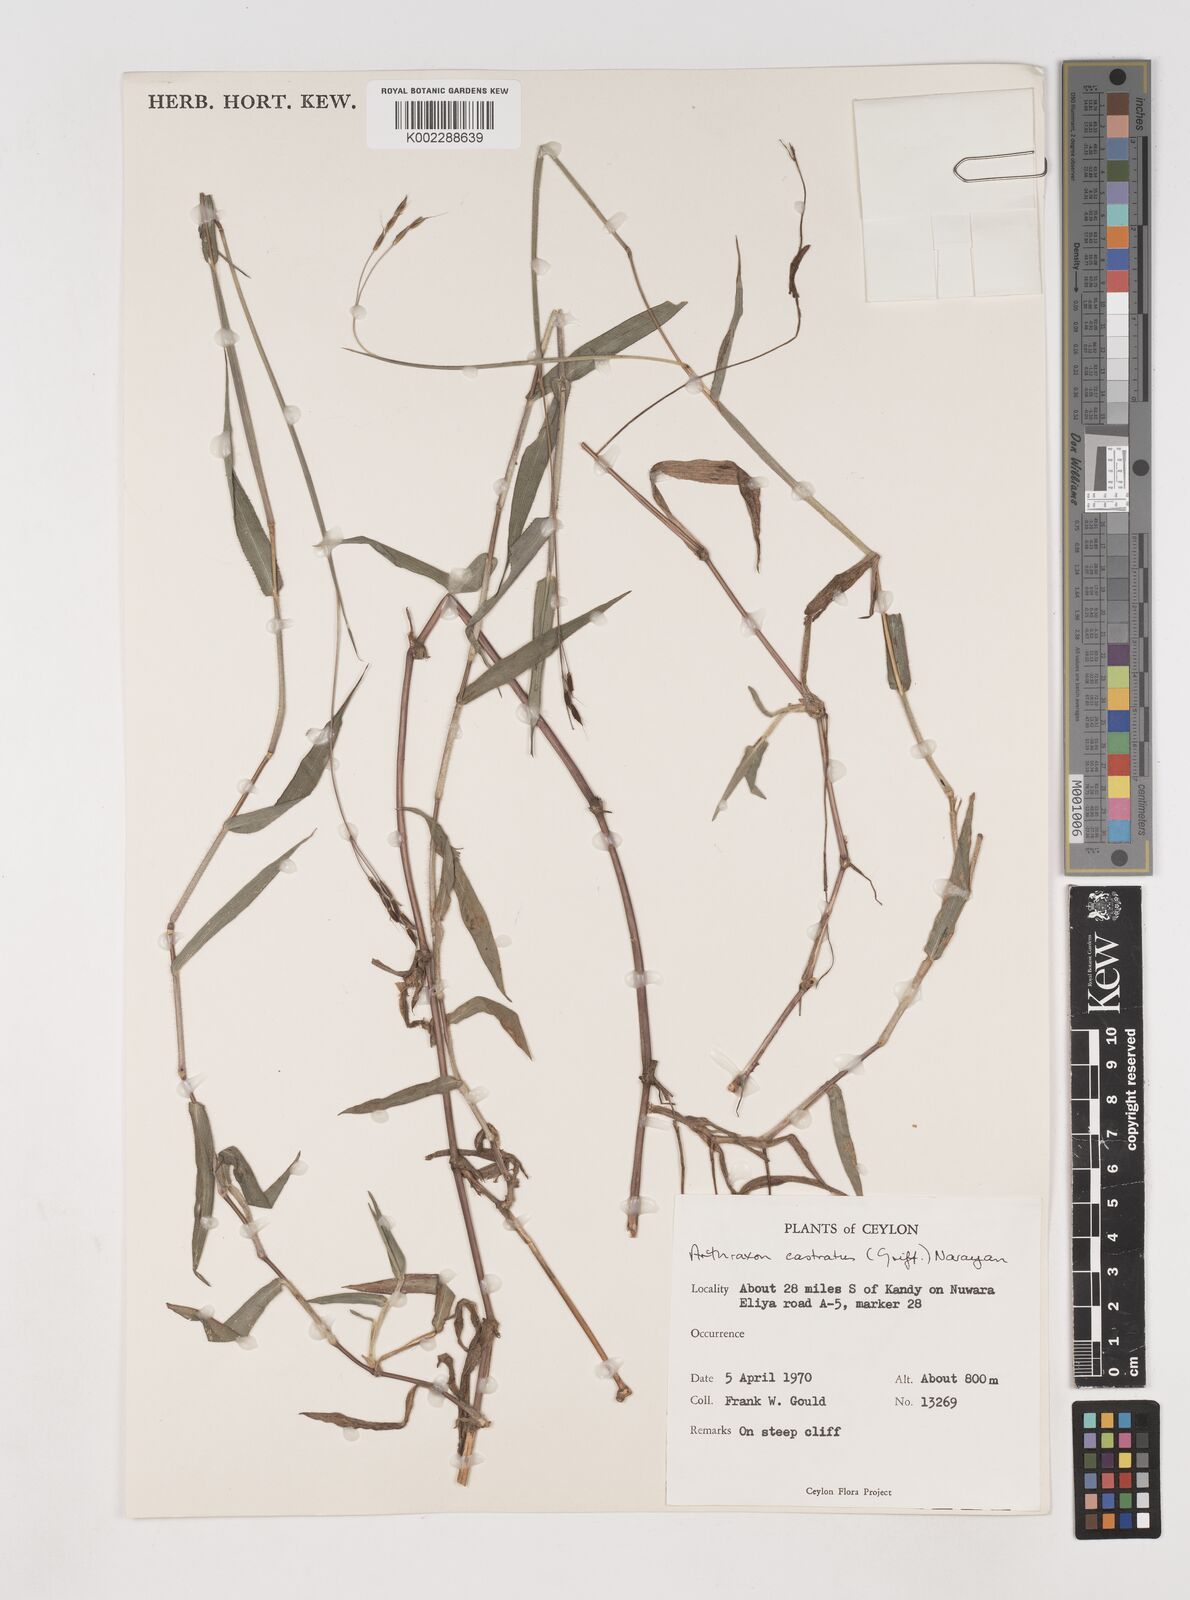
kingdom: Plantae
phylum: Tracheophyta
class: Liliopsida
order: Poales
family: Poaceae
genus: Arthraxon
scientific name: Arthraxon castratus
